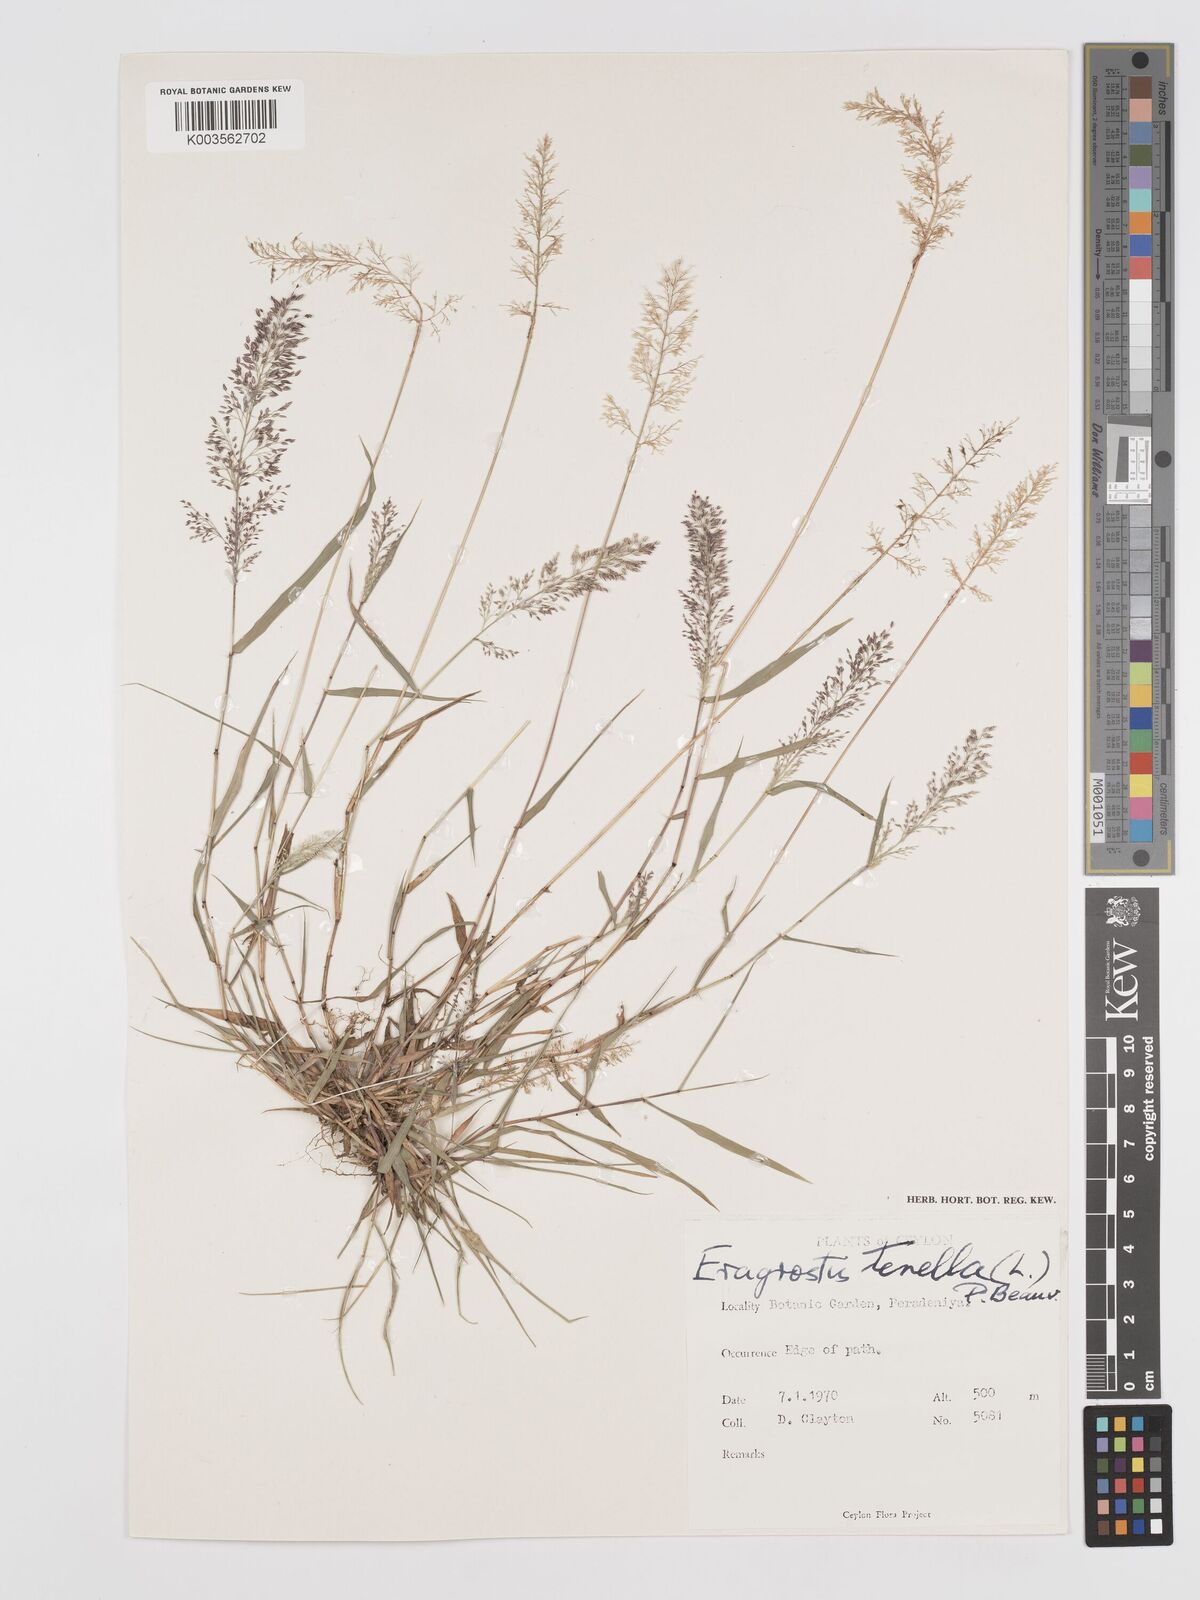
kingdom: Plantae
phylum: Tracheophyta
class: Liliopsida
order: Poales
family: Poaceae
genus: Eragrostis
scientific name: Eragrostis tenella
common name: Japanese lovegrass
